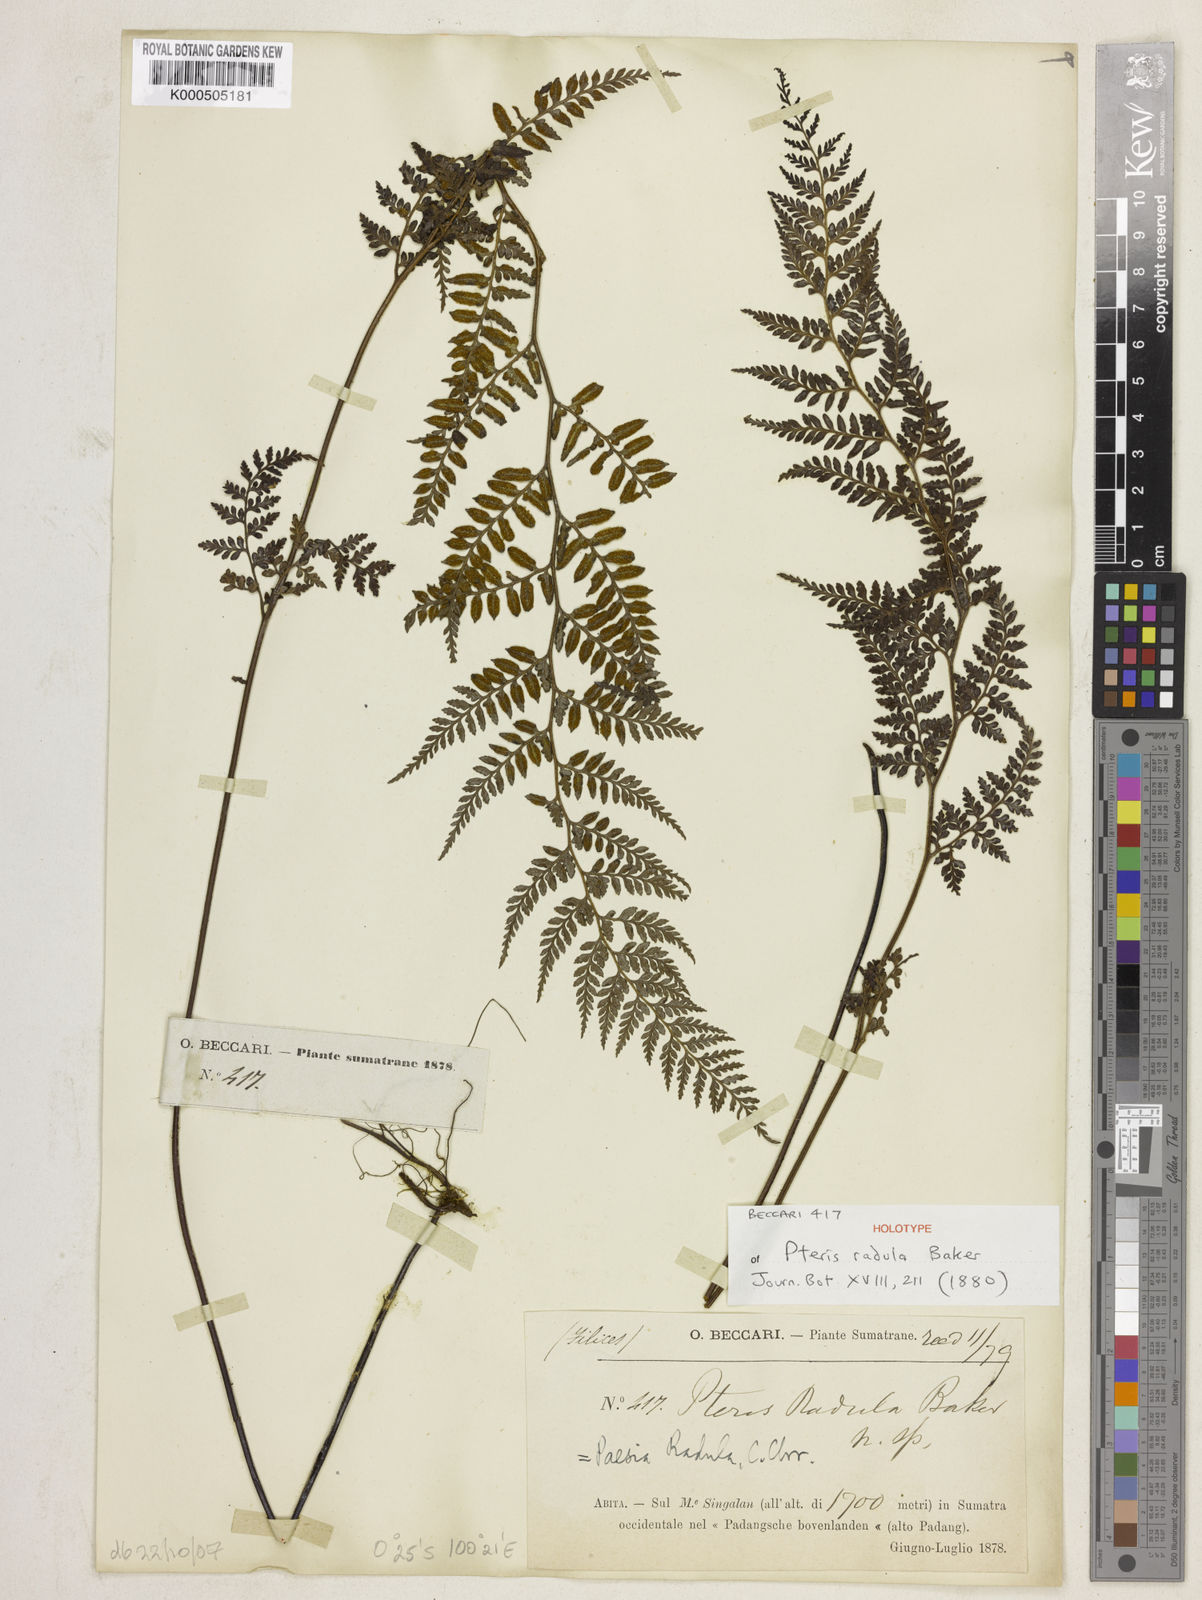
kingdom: Plantae
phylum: Tracheophyta
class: Polypodiopsida
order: Polypodiales
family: Dennstaedtiaceae
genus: Paesia
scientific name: Paesia radula
